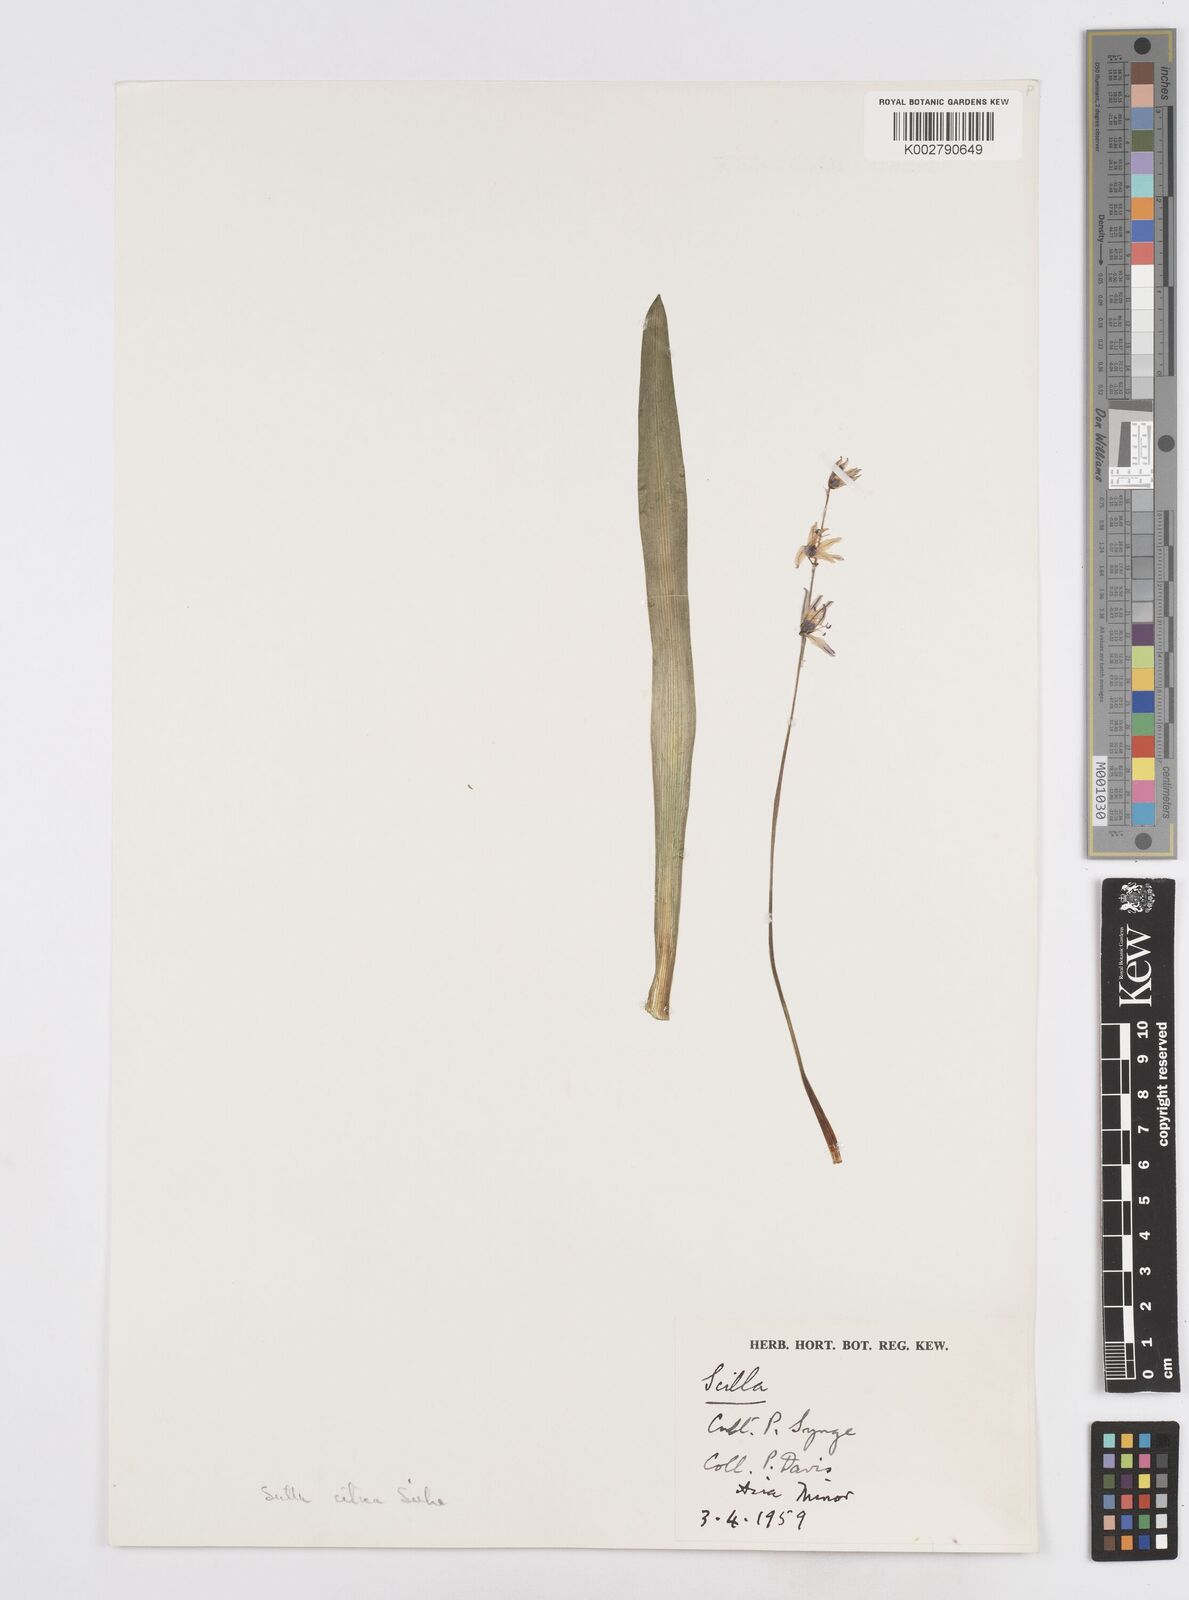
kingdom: Plantae
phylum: Tracheophyta
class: Liliopsida
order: Asparagales
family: Asparagaceae
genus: Scilla
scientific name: Scilla cilicica
